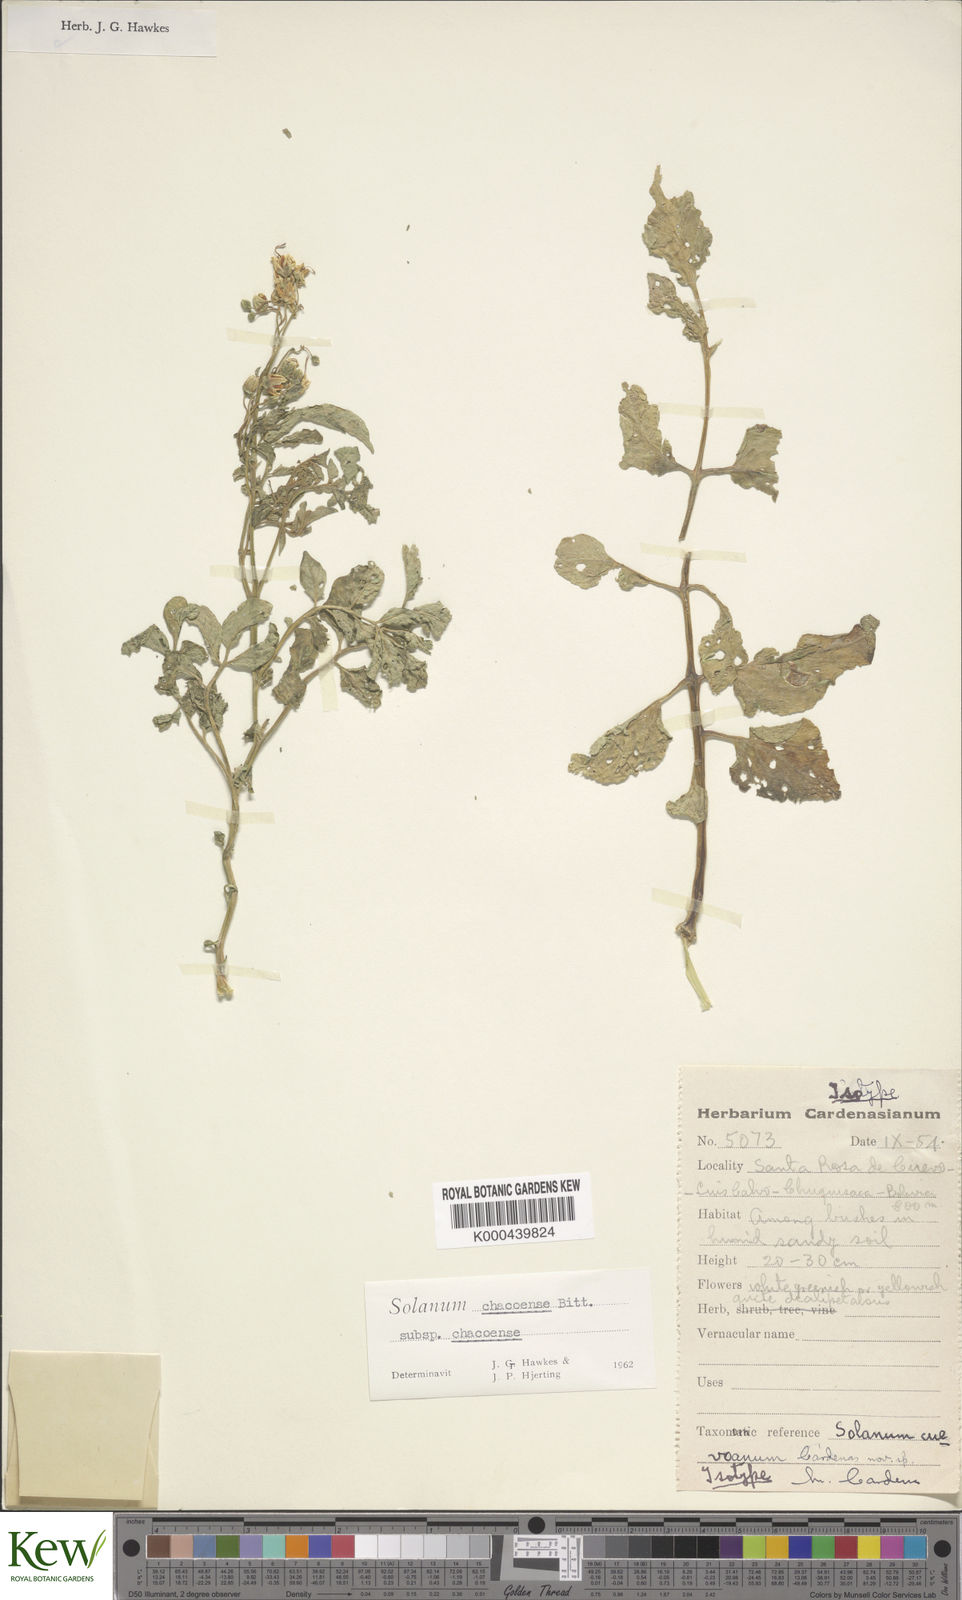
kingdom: Plantae
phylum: Tracheophyta
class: Magnoliopsida
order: Solanales
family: Solanaceae
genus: Solanum
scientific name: Solanum chacoense
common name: Chaco potato
